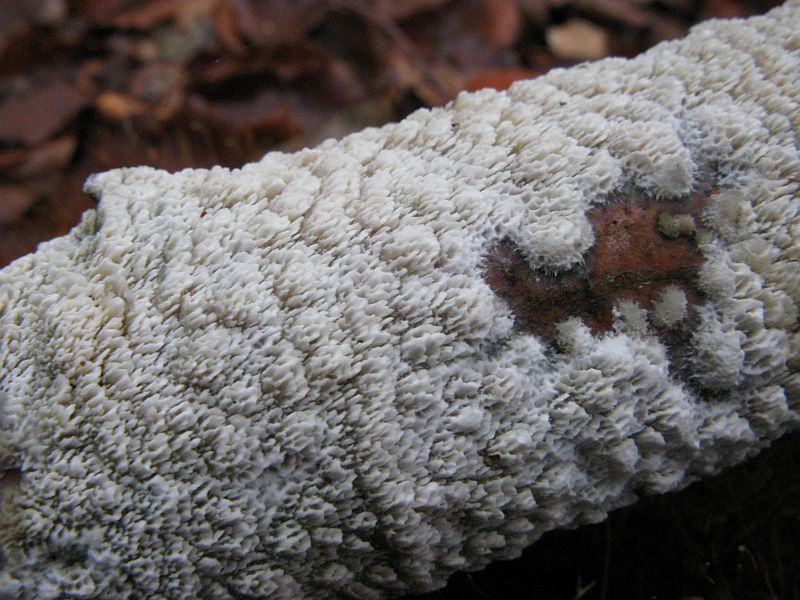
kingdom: Fungi
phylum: Basidiomycota
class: Agaricomycetes
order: Hymenochaetales
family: Schizoporaceae
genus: Schizopora
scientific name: Schizopora paradoxa
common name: hvid tandsvamp
